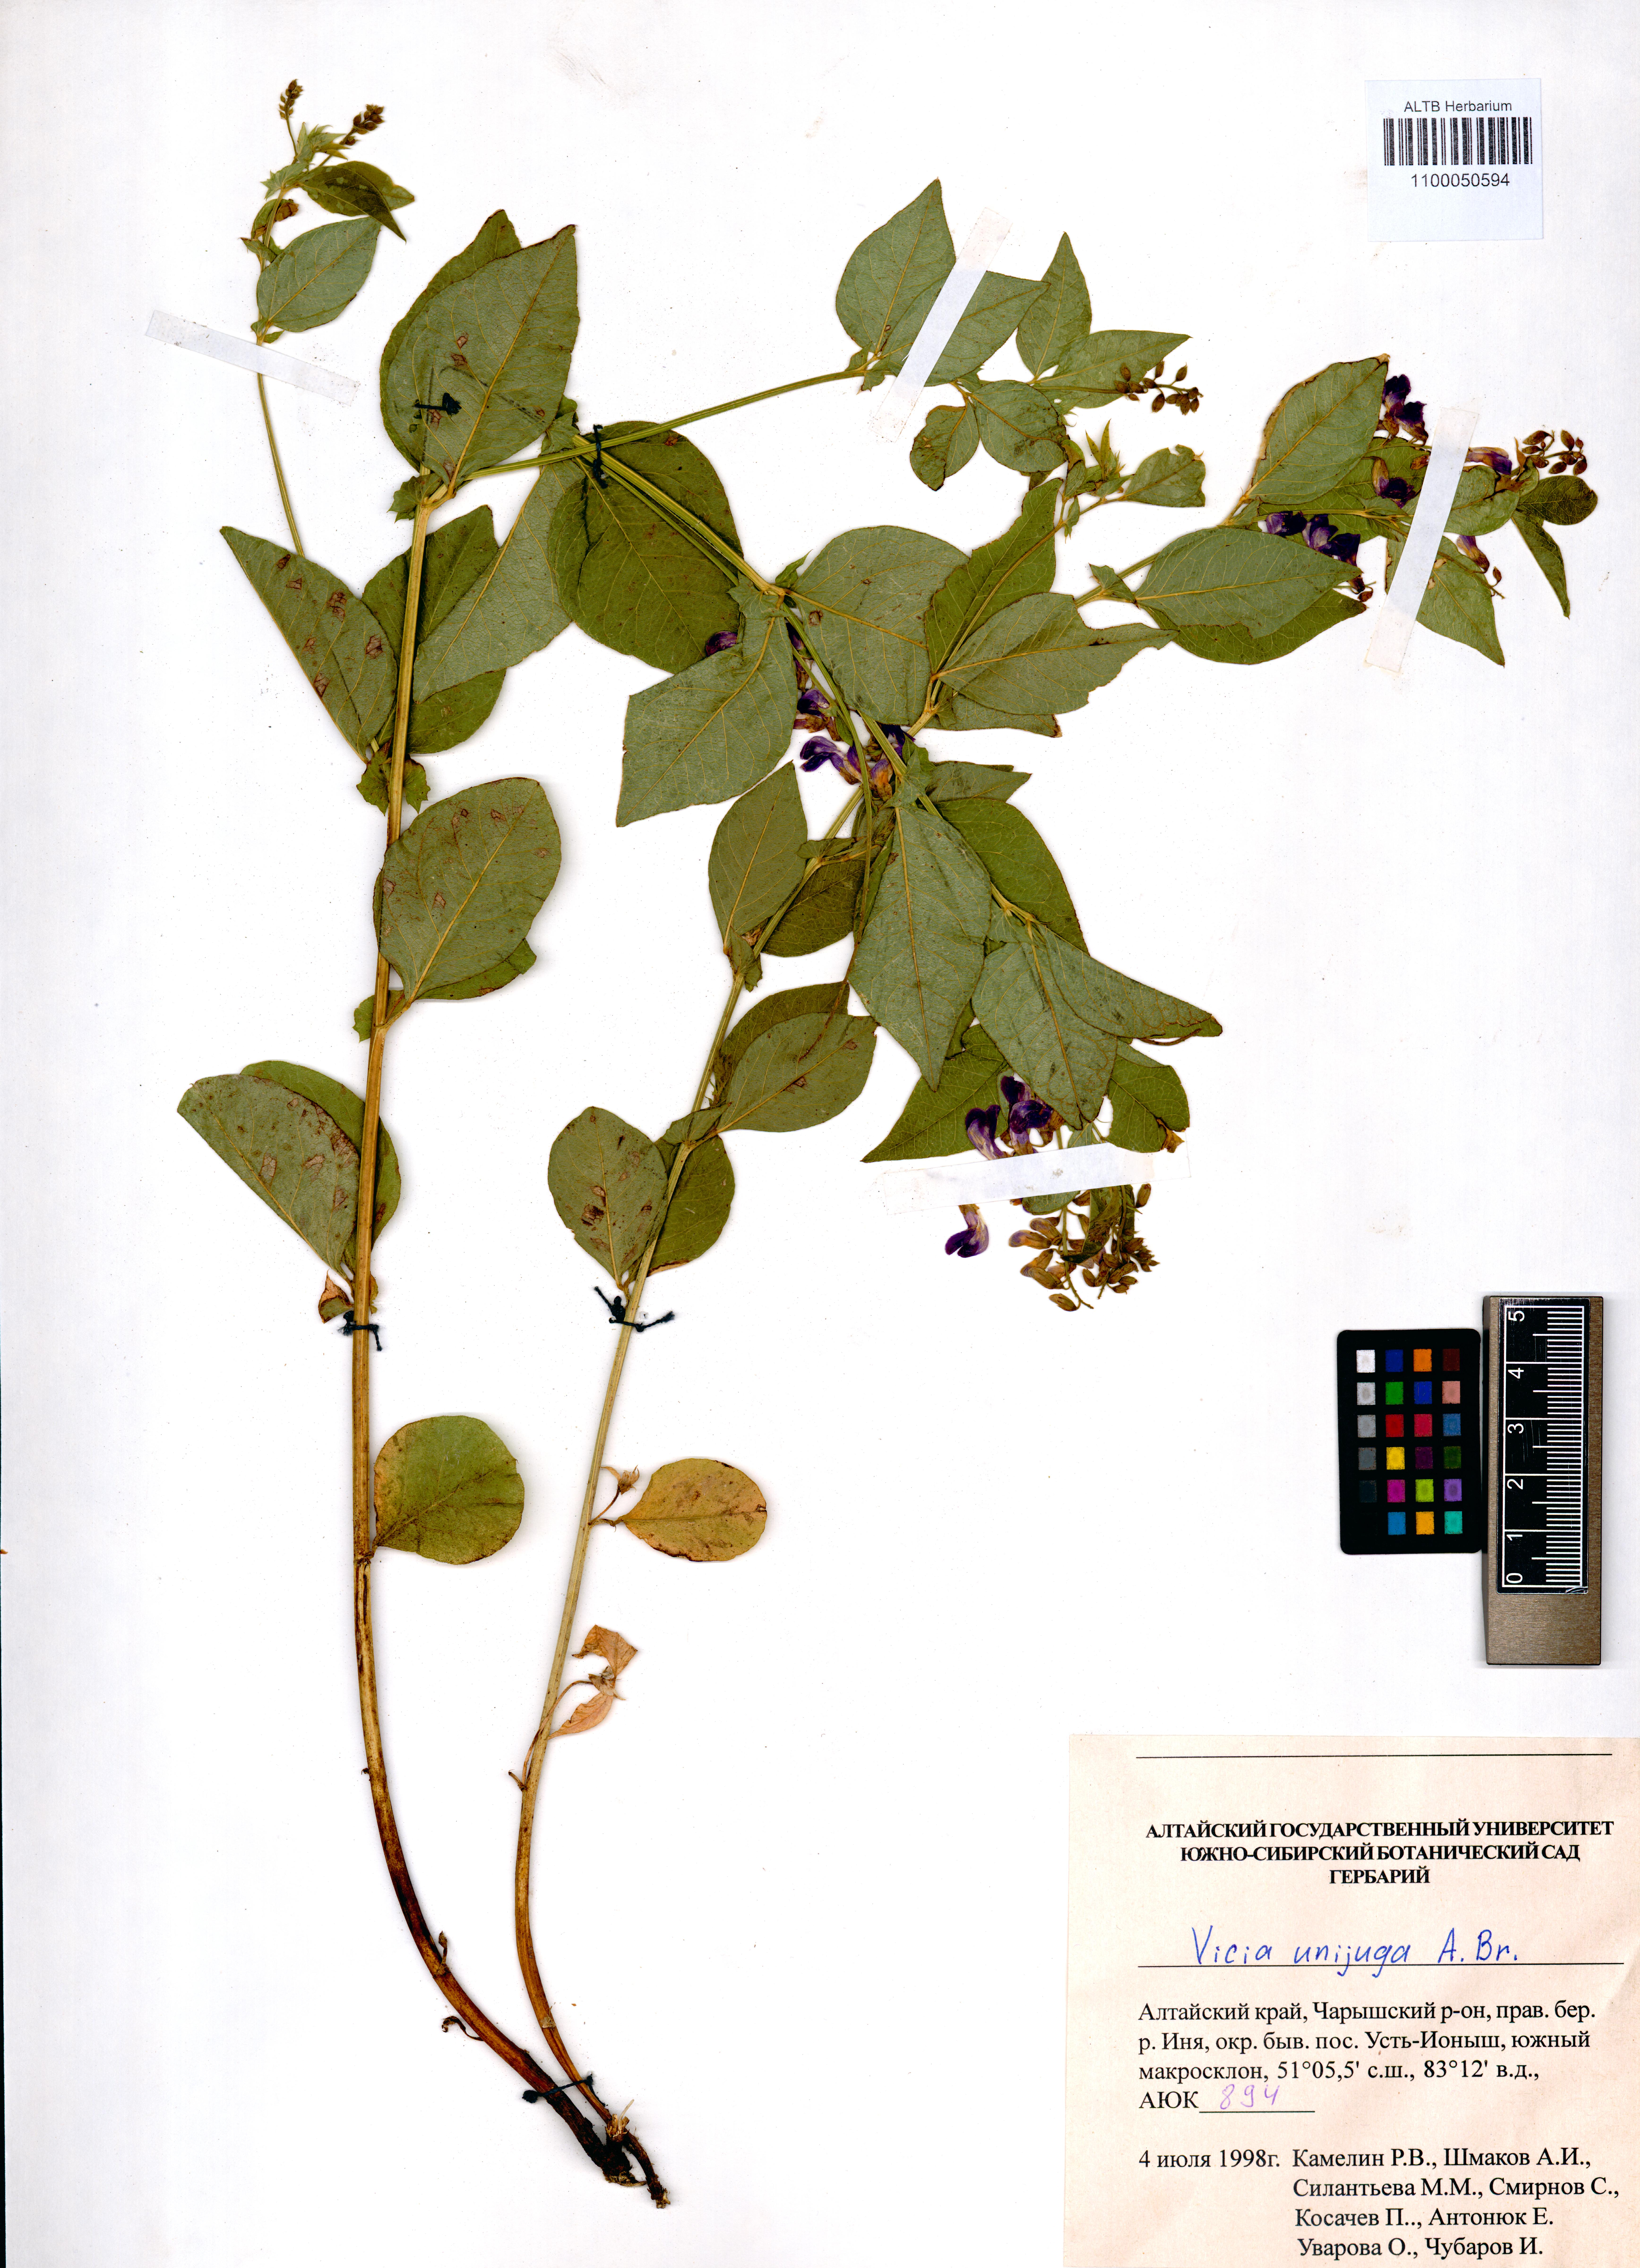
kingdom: Plantae
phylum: Tracheophyta
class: Magnoliopsida
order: Fabales
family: Fabaceae
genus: Vicia
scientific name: Vicia unijuga
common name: Two-leaf vetch
